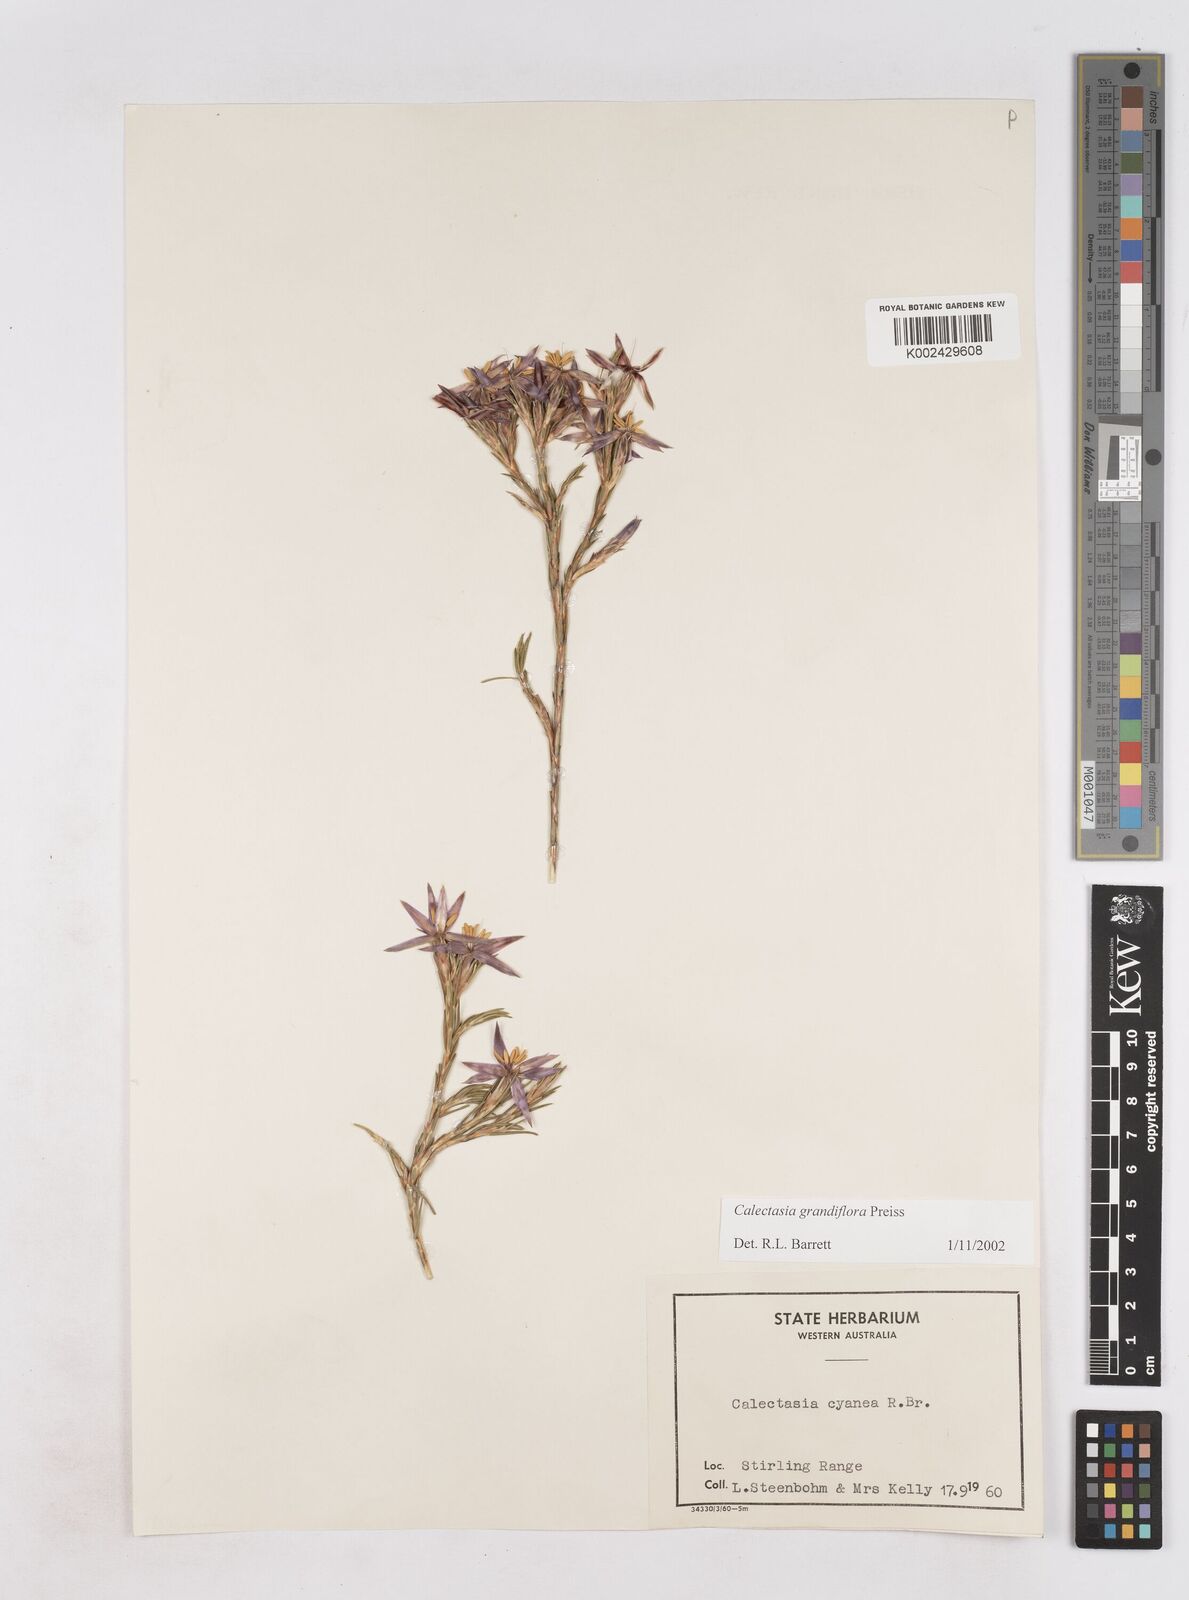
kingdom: Plantae
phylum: Tracheophyta
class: Liliopsida
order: Arecales
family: Dasypogonaceae
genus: Calectasia
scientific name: Calectasia grandiflora
